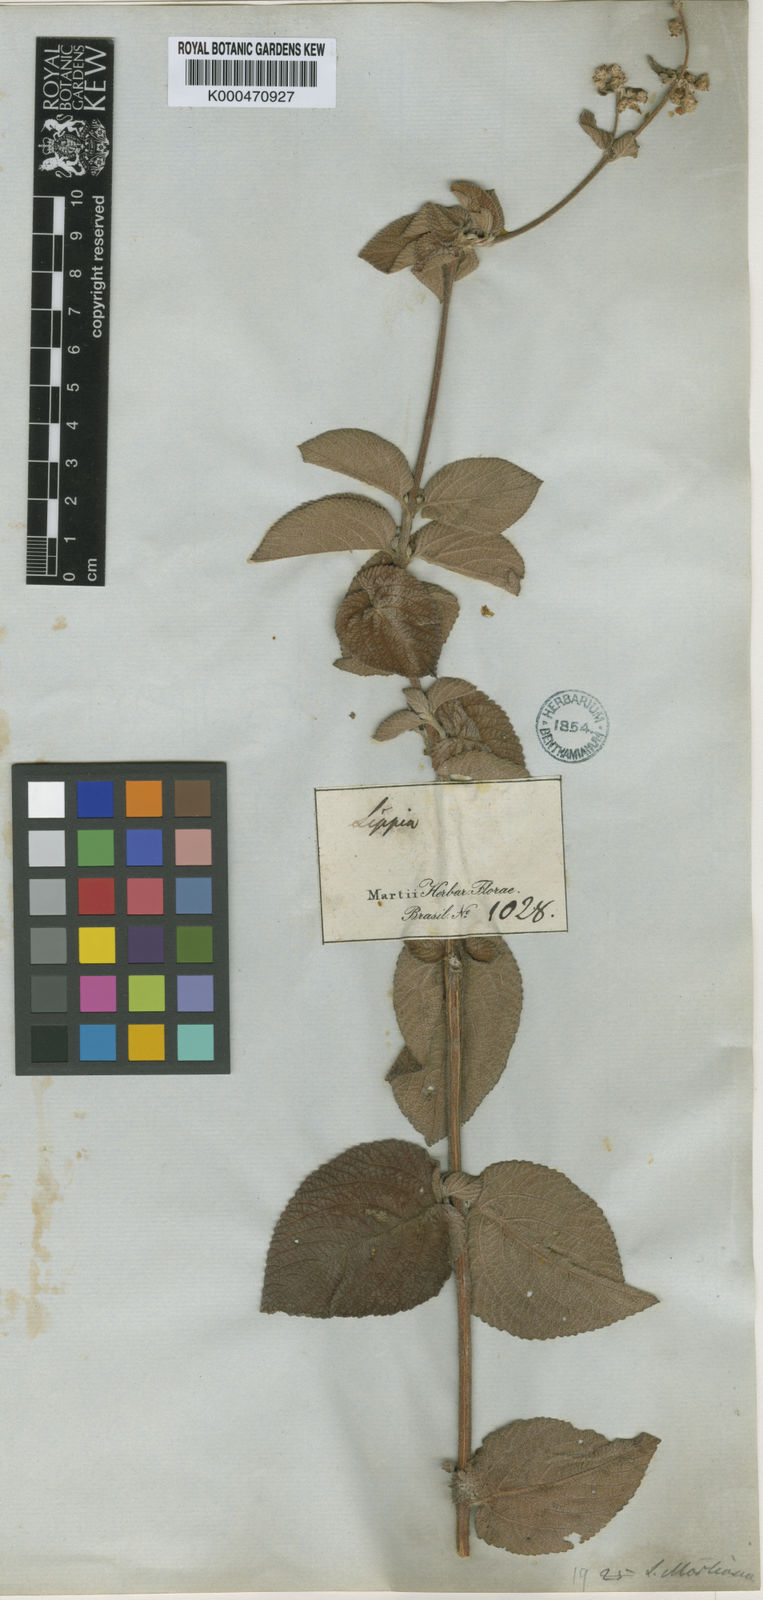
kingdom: Plantae
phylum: Tracheophyta
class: Magnoliopsida
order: Lamiales
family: Verbenaceae
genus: Lippia
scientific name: Lippia martiana
